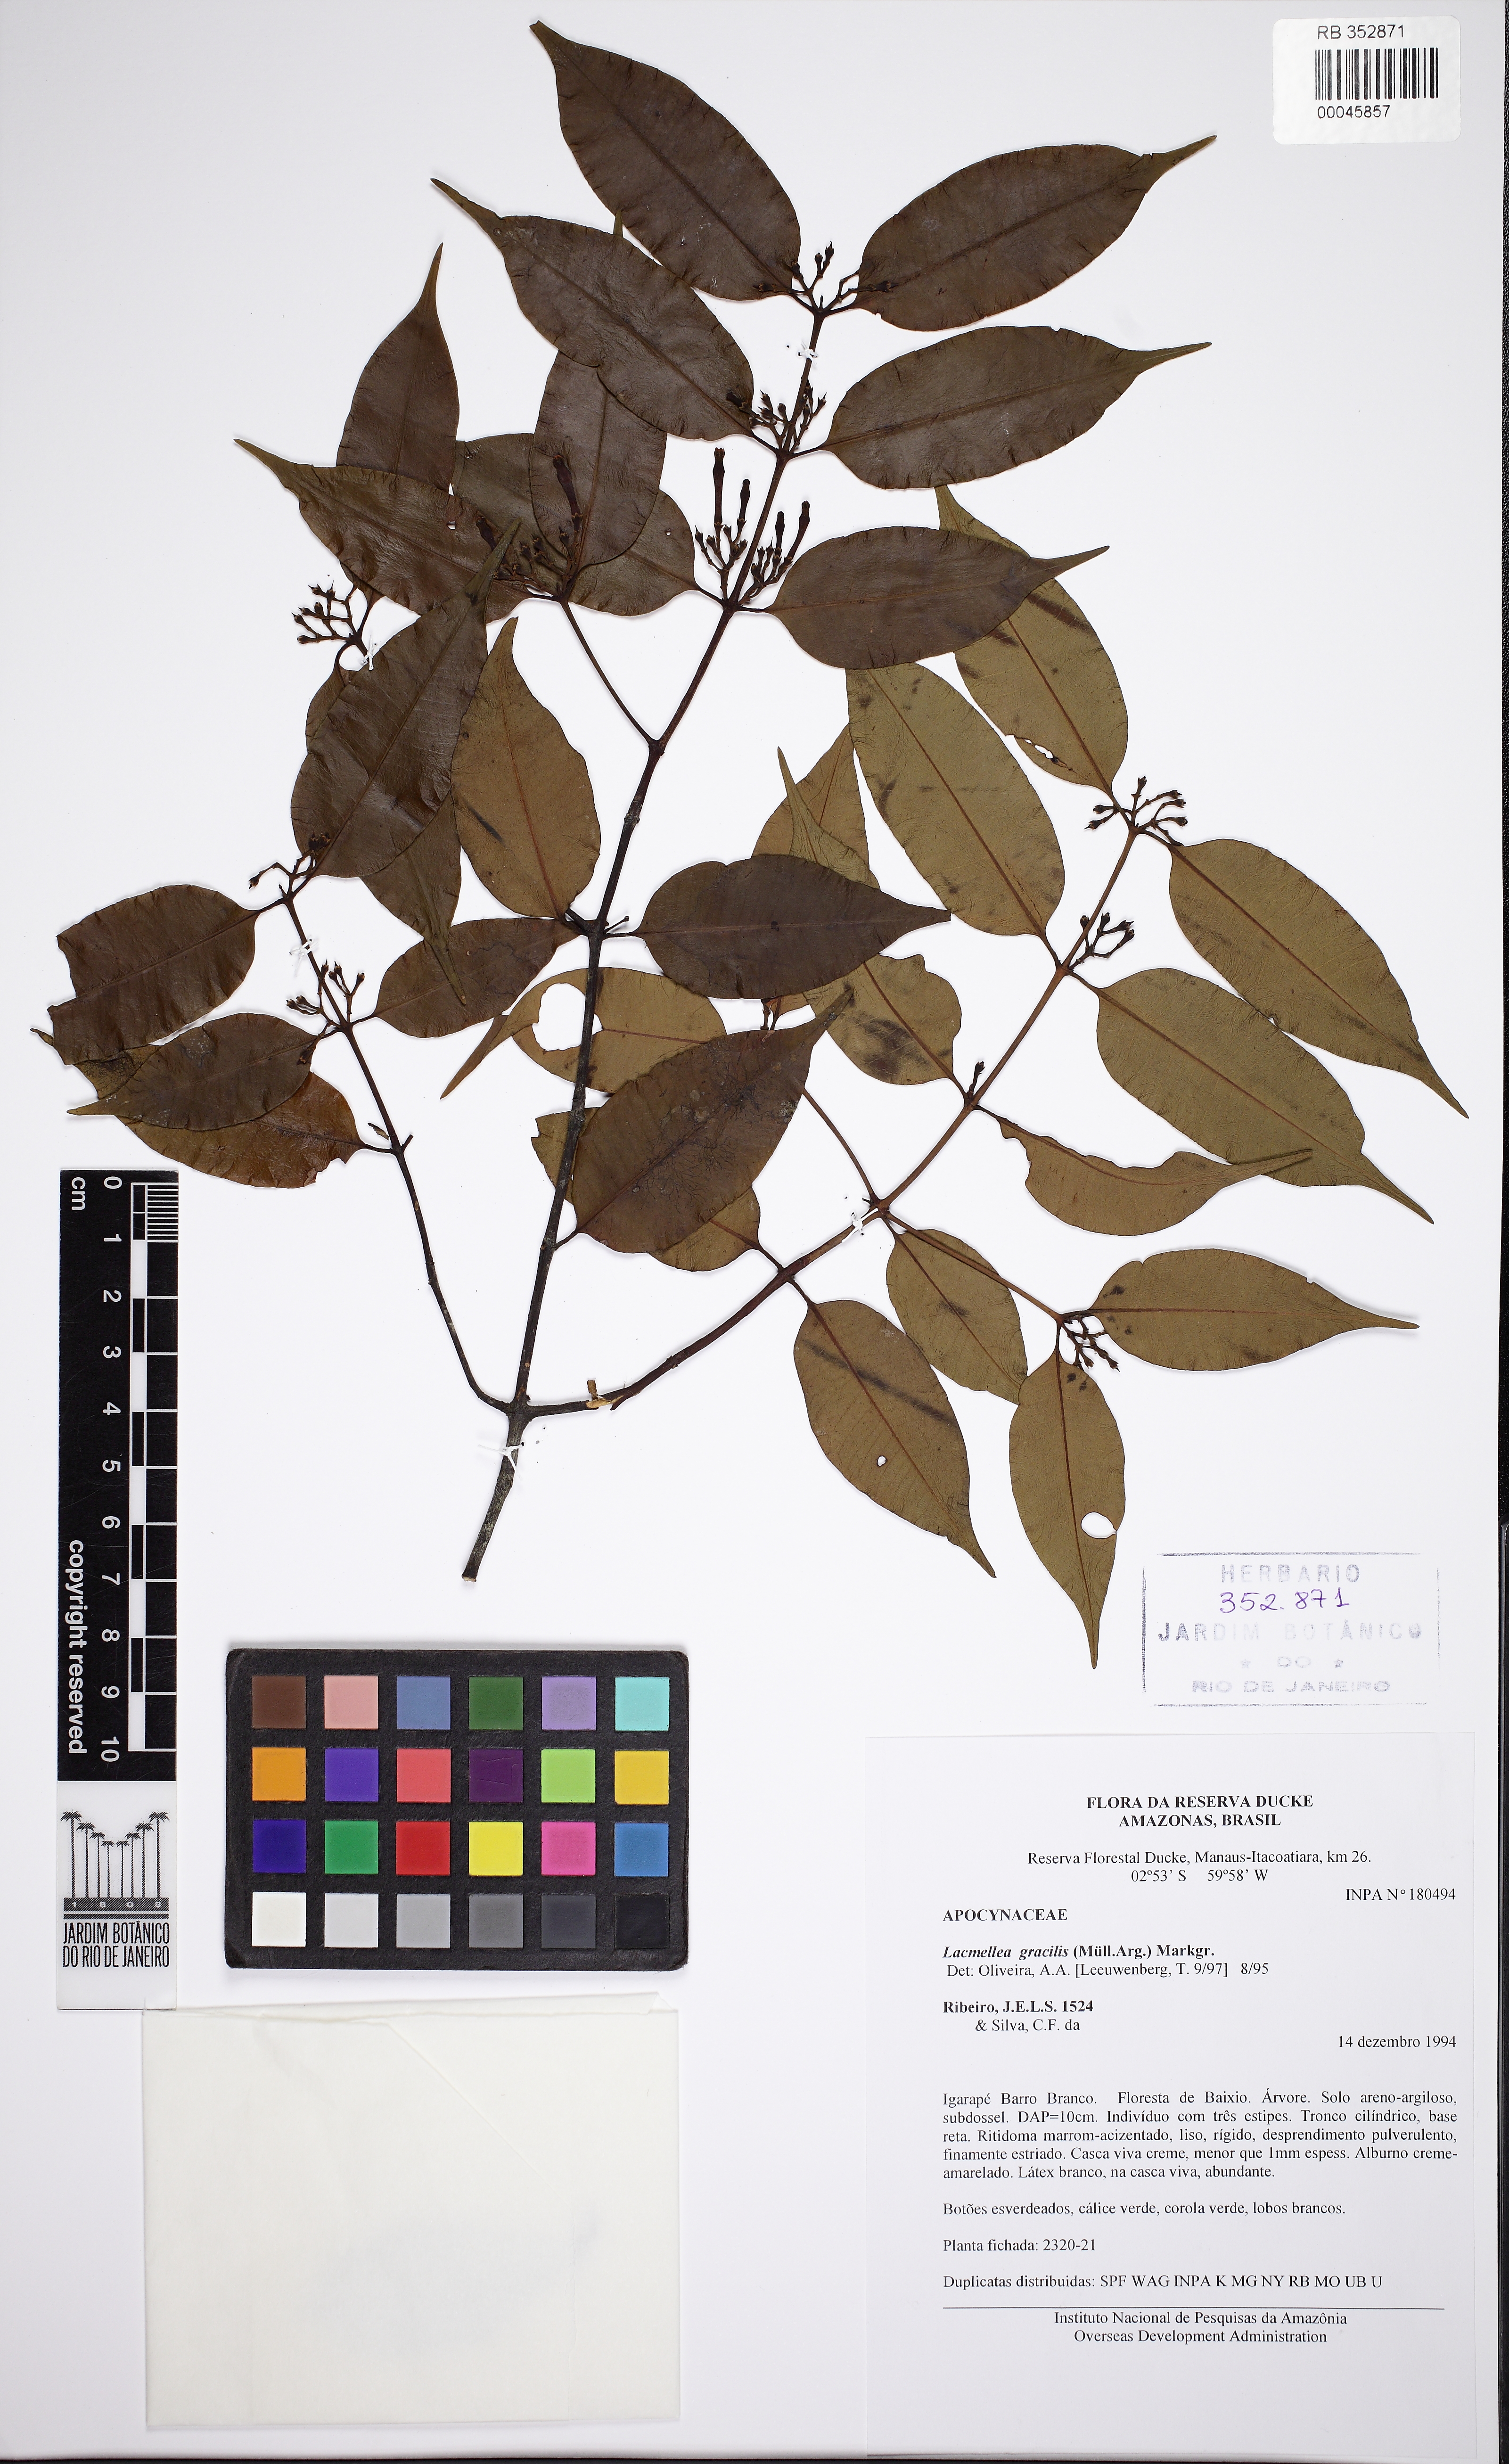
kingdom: Plantae
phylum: Tracheophyta
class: Magnoliopsida
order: Gentianales
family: Apocynaceae
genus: Lacmellea
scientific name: Lacmellea gracilis
